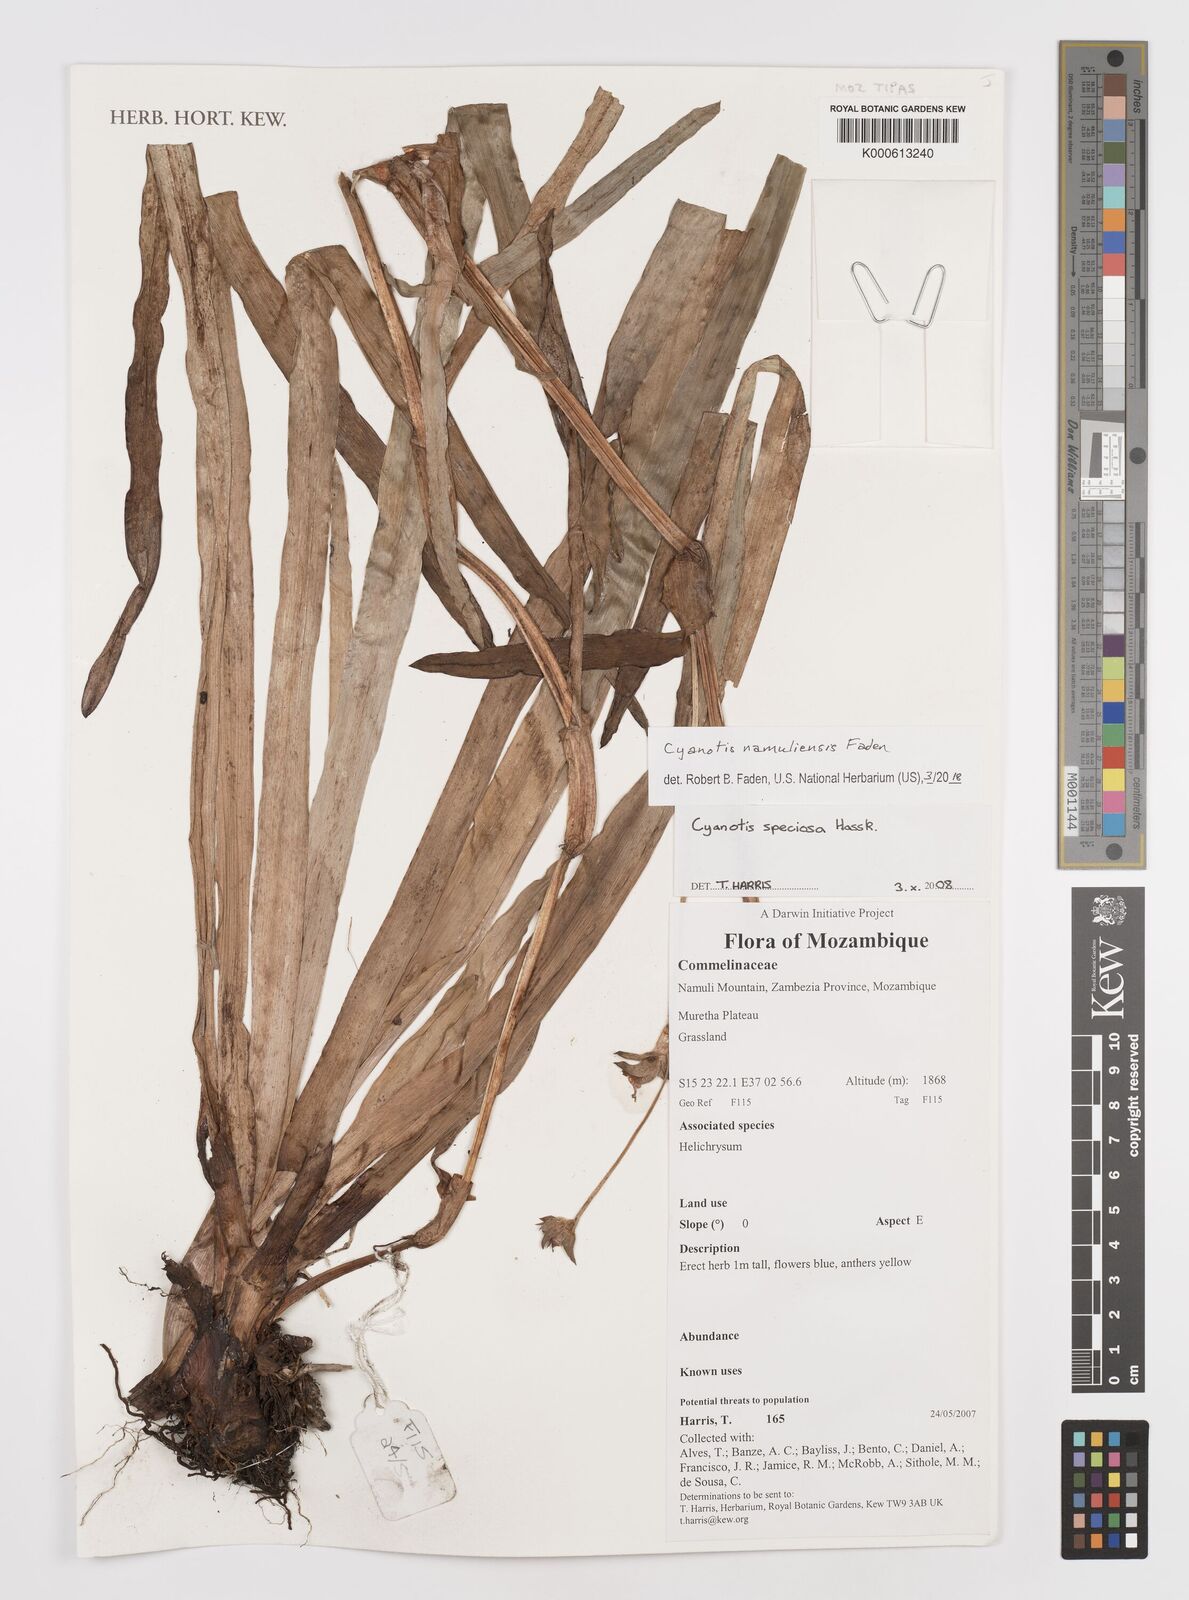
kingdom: Plantae
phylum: Tracheophyta
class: Liliopsida
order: Commelinales
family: Commelinaceae
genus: Cyanotis
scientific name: Cyanotis speciosa
